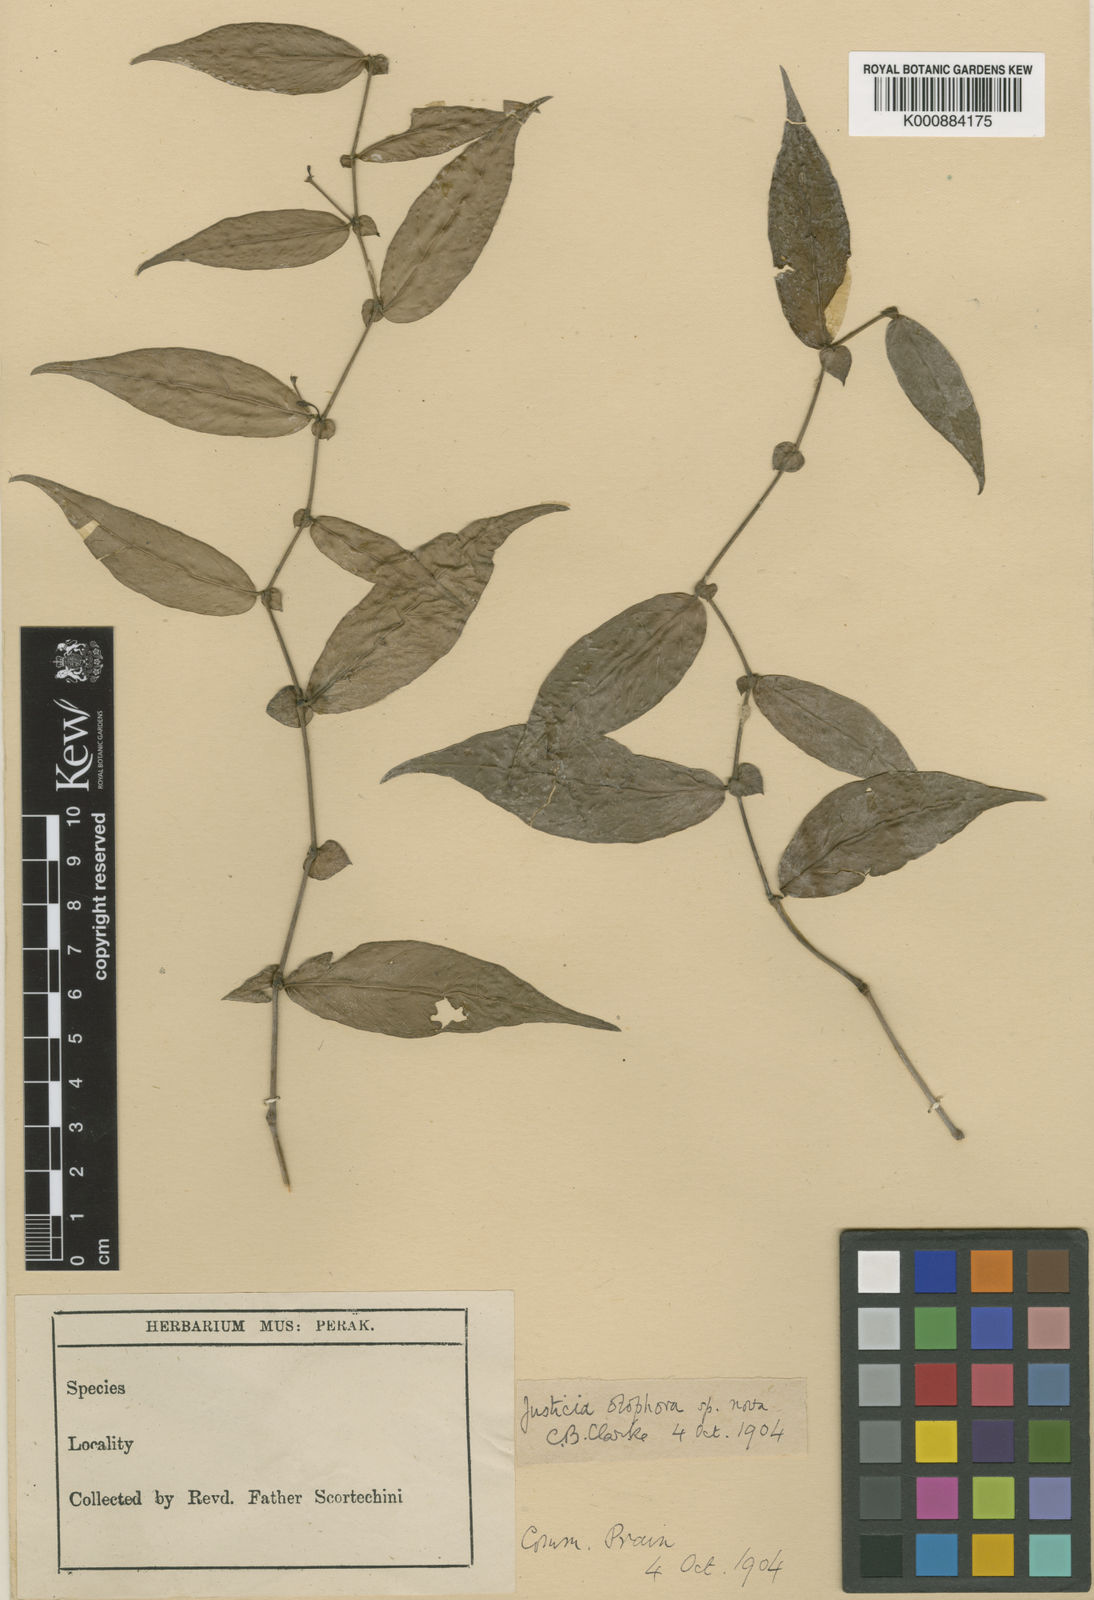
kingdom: Plantae
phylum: Tracheophyta
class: Magnoliopsida
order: Lamiales
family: Acanthaceae
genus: Justicia
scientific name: Justicia otophora
